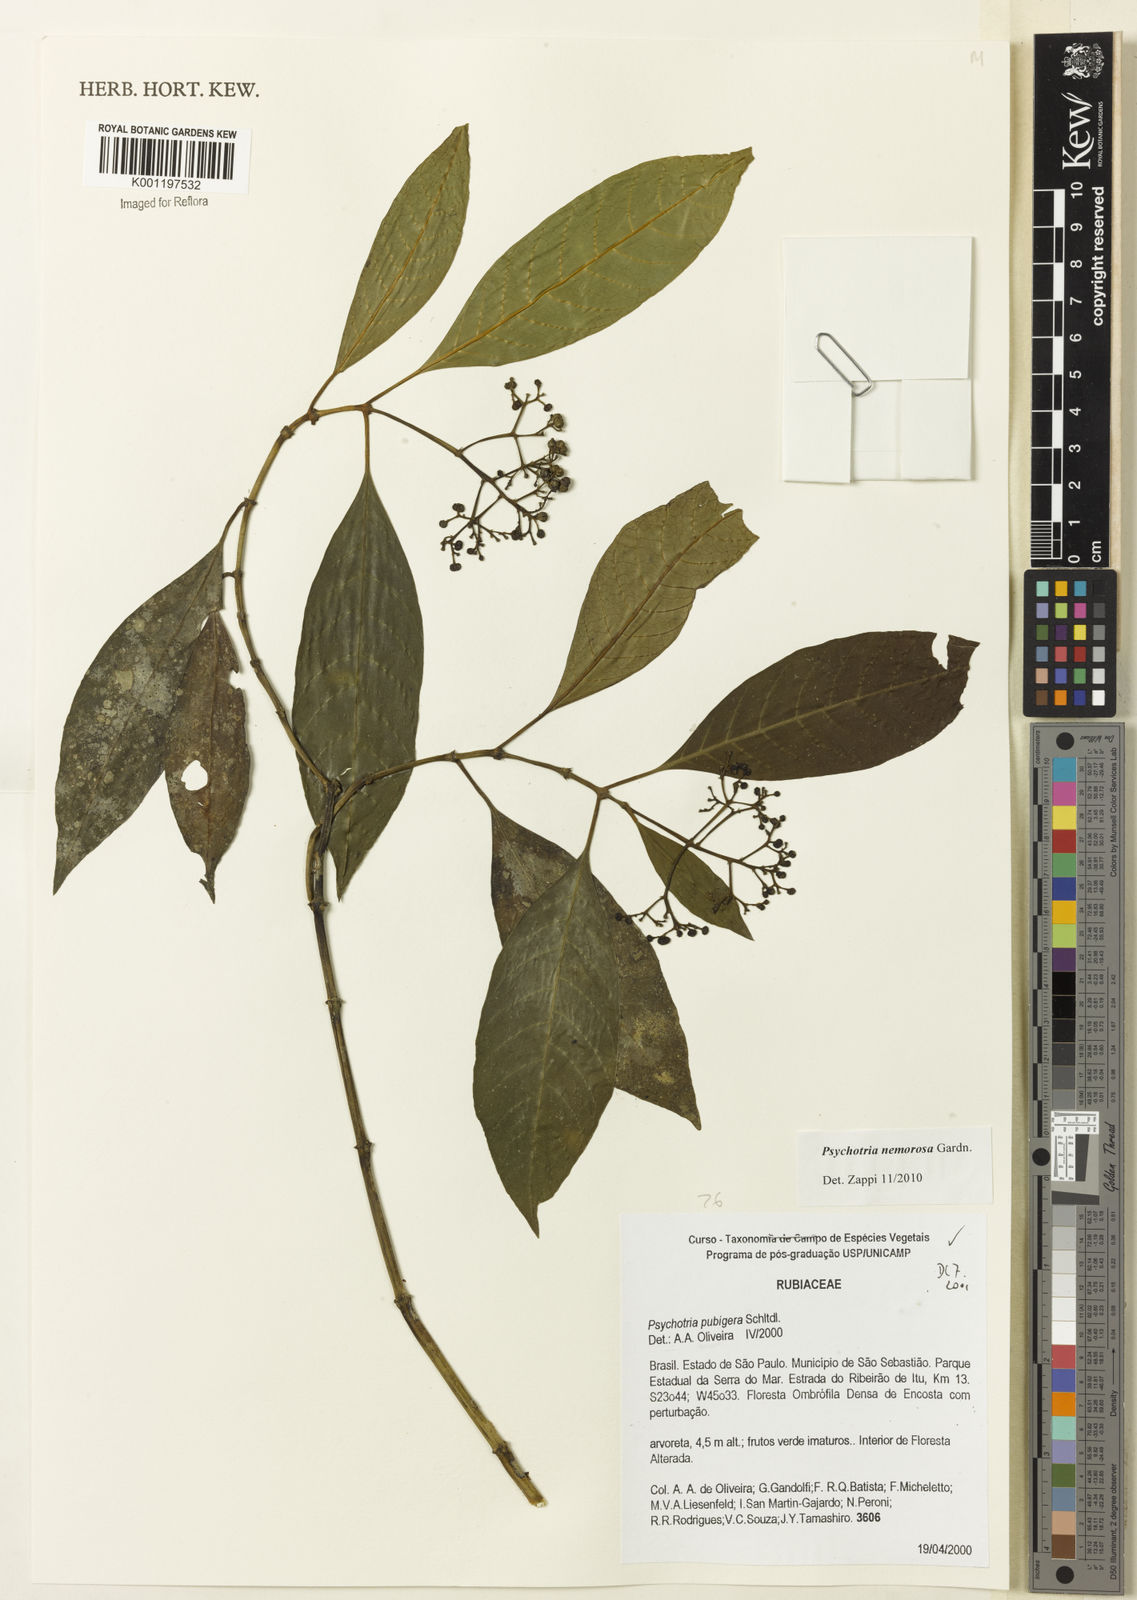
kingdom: Plantae
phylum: Tracheophyta
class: Magnoliopsida
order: Gentianales
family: Rubiaceae
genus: Psychotria
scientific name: Psychotria nemorosa
